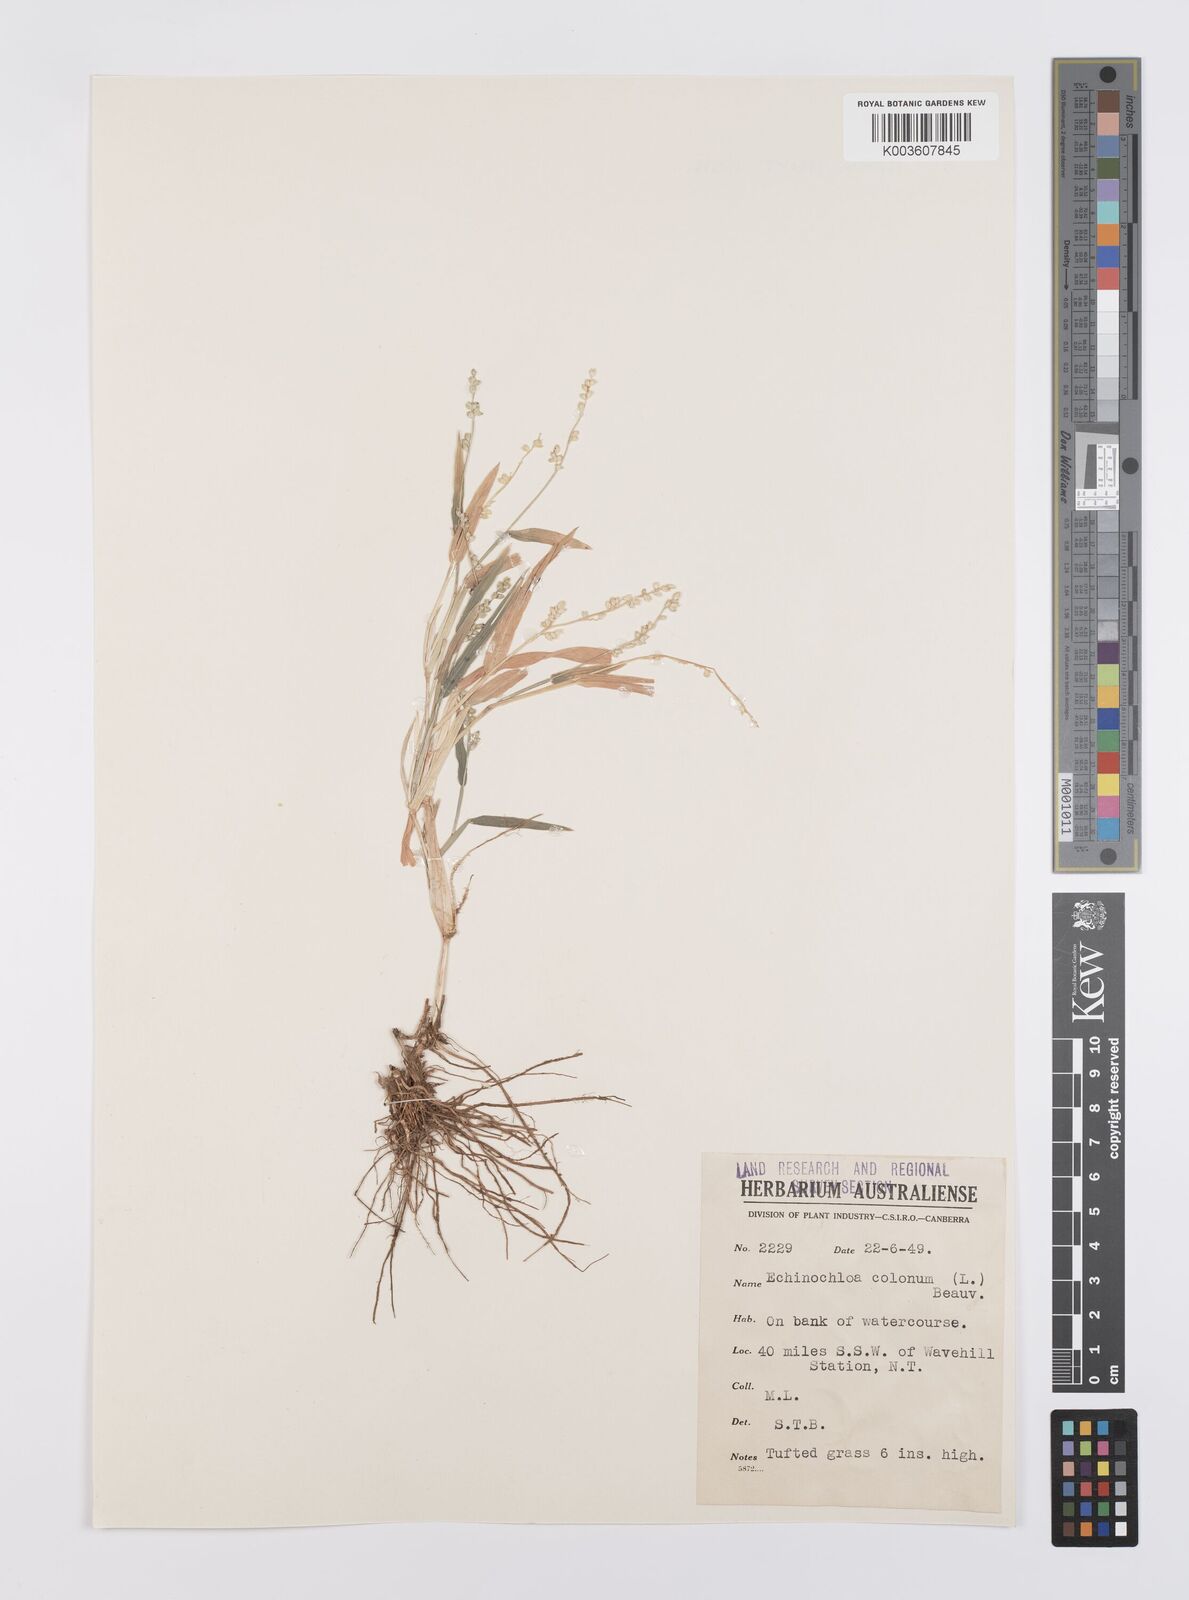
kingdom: Plantae
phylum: Tracheophyta
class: Liliopsida
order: Poales
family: Poaceae
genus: Echinochloa
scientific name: Echinochloa colonum
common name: Jungle rice
